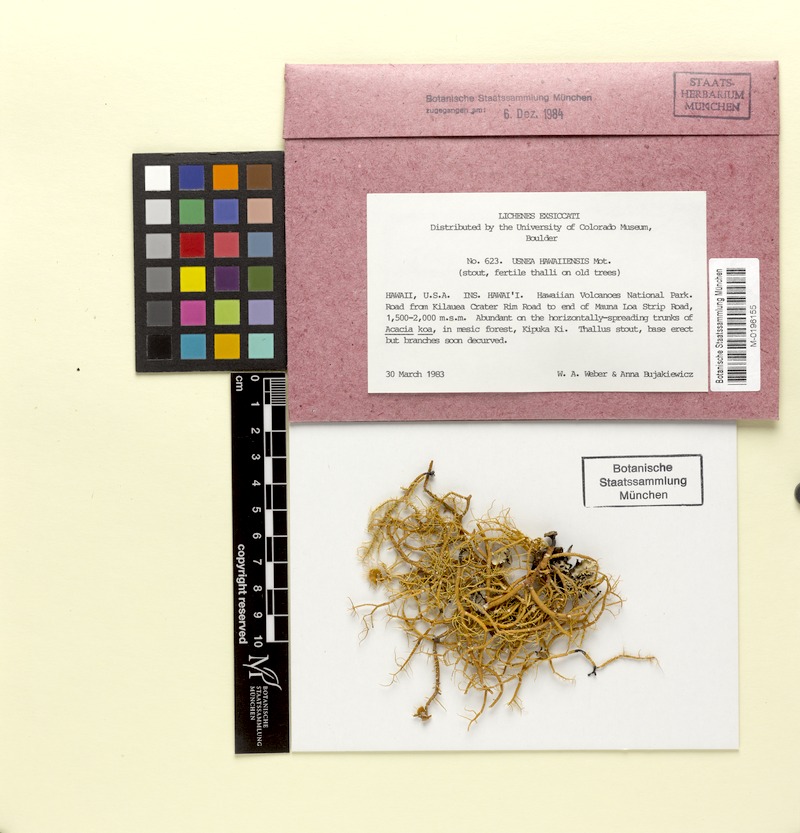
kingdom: Fungi
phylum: Ascomycota
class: Lecanoromycetes
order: Lecanorales
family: Parmeliaceae
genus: Usnea
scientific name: Usnea hawaiiensis
